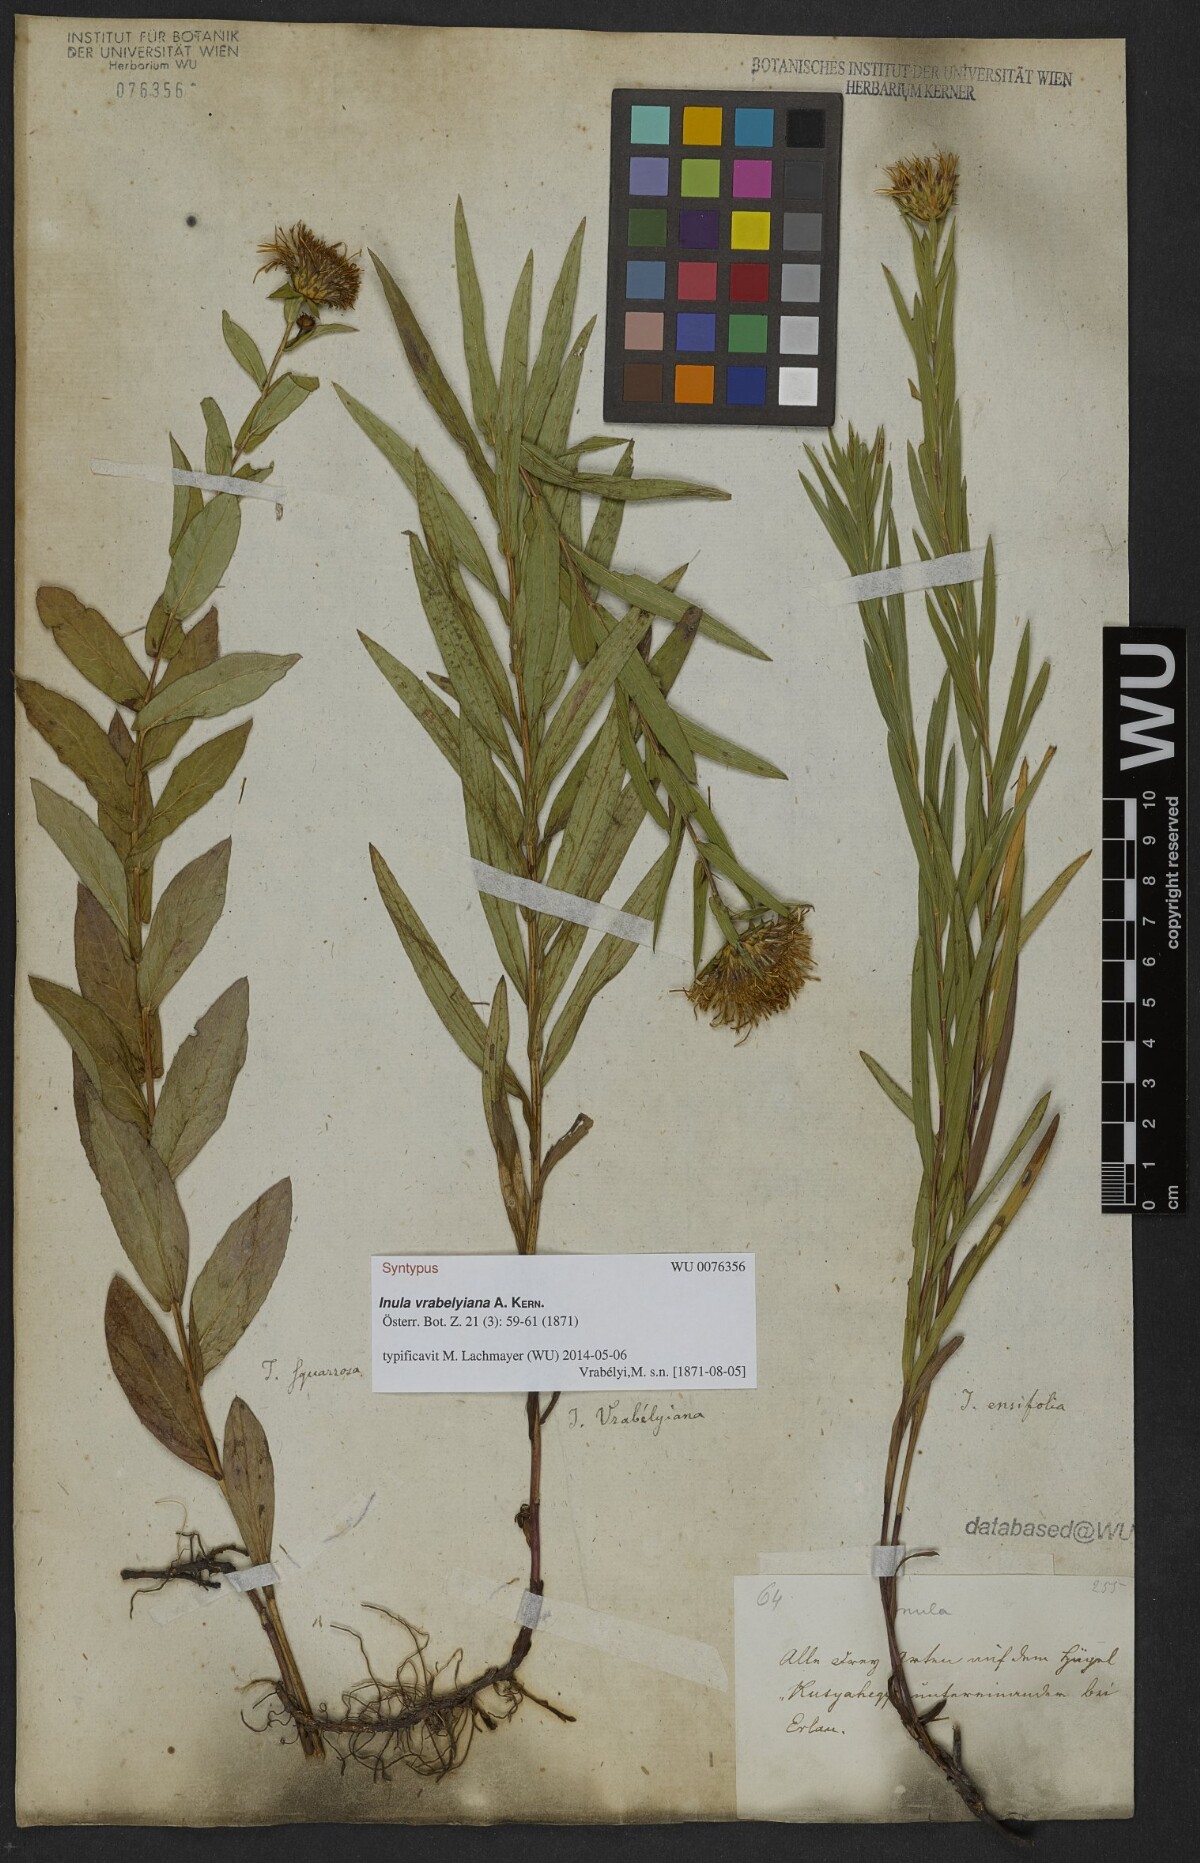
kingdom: Plantae
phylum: Tracheophyta
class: Magnoliopsida
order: Asterales
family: Asteraceae
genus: Pentanema
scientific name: Pentanema strictum
